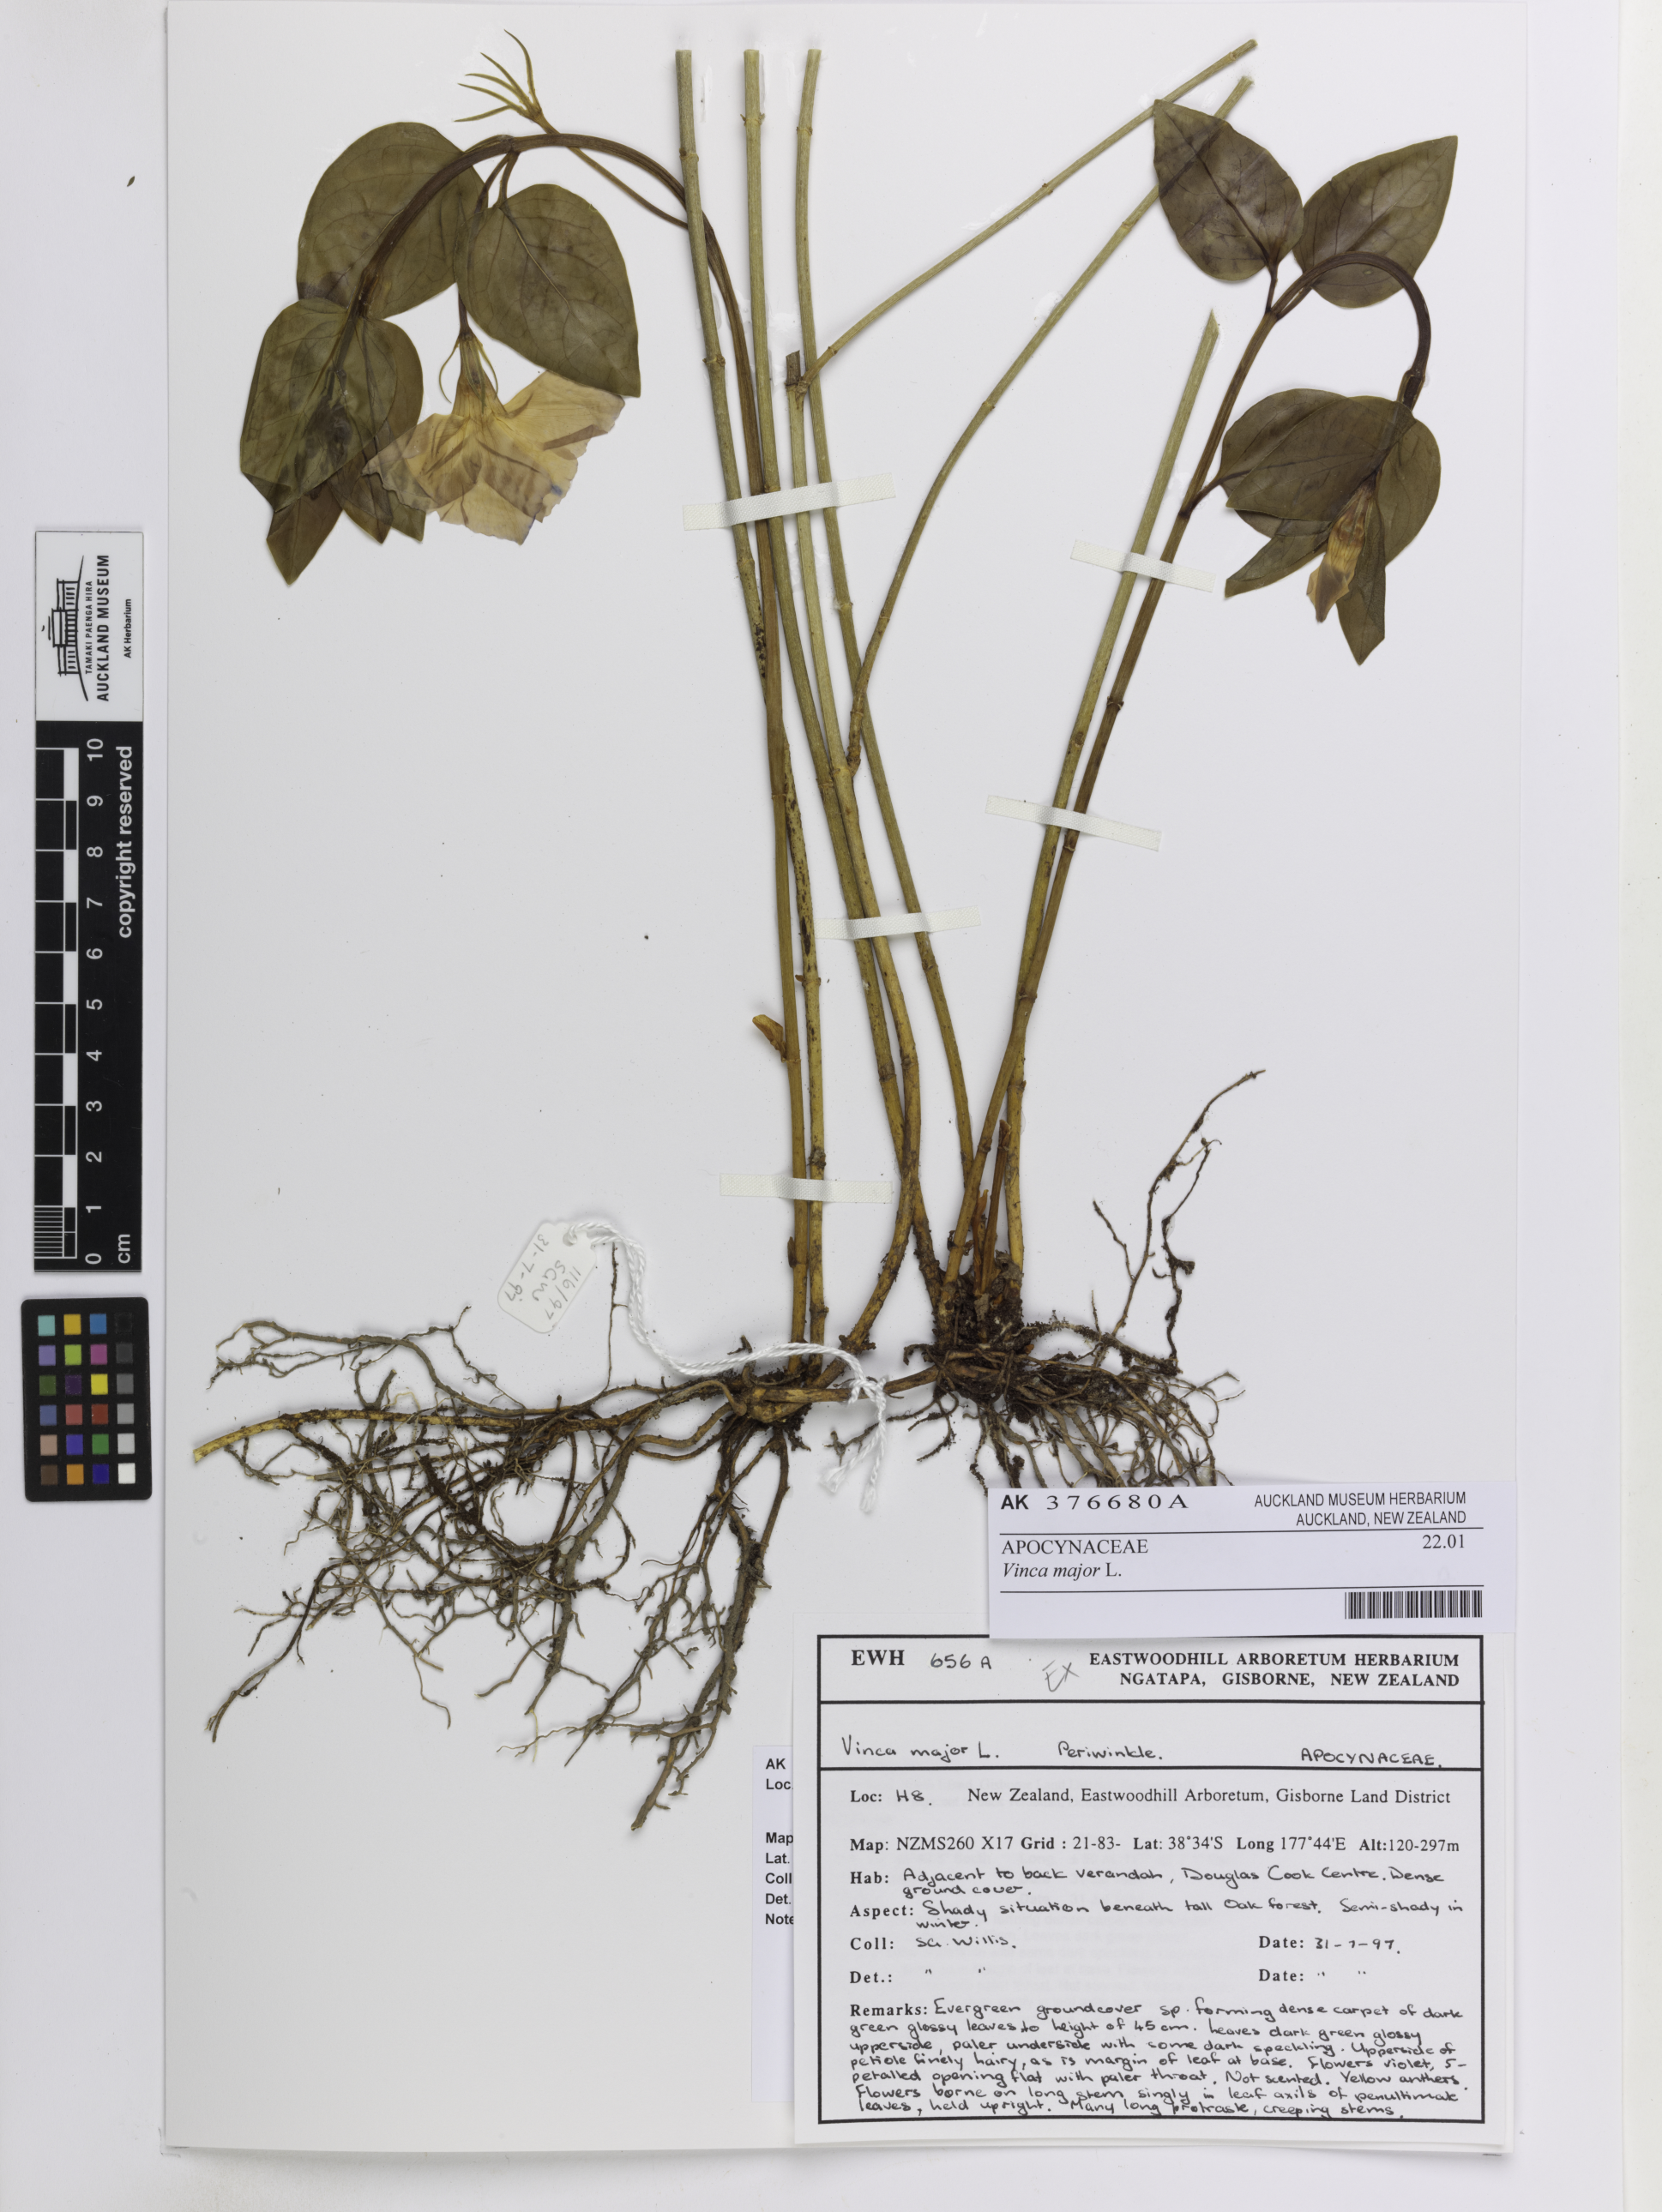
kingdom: Plantae
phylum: Tracheophyta
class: Magnoliopsida
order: Gentianales
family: Apocynaceae
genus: Vinca
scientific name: Vinca major
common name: Greater periwinkle
